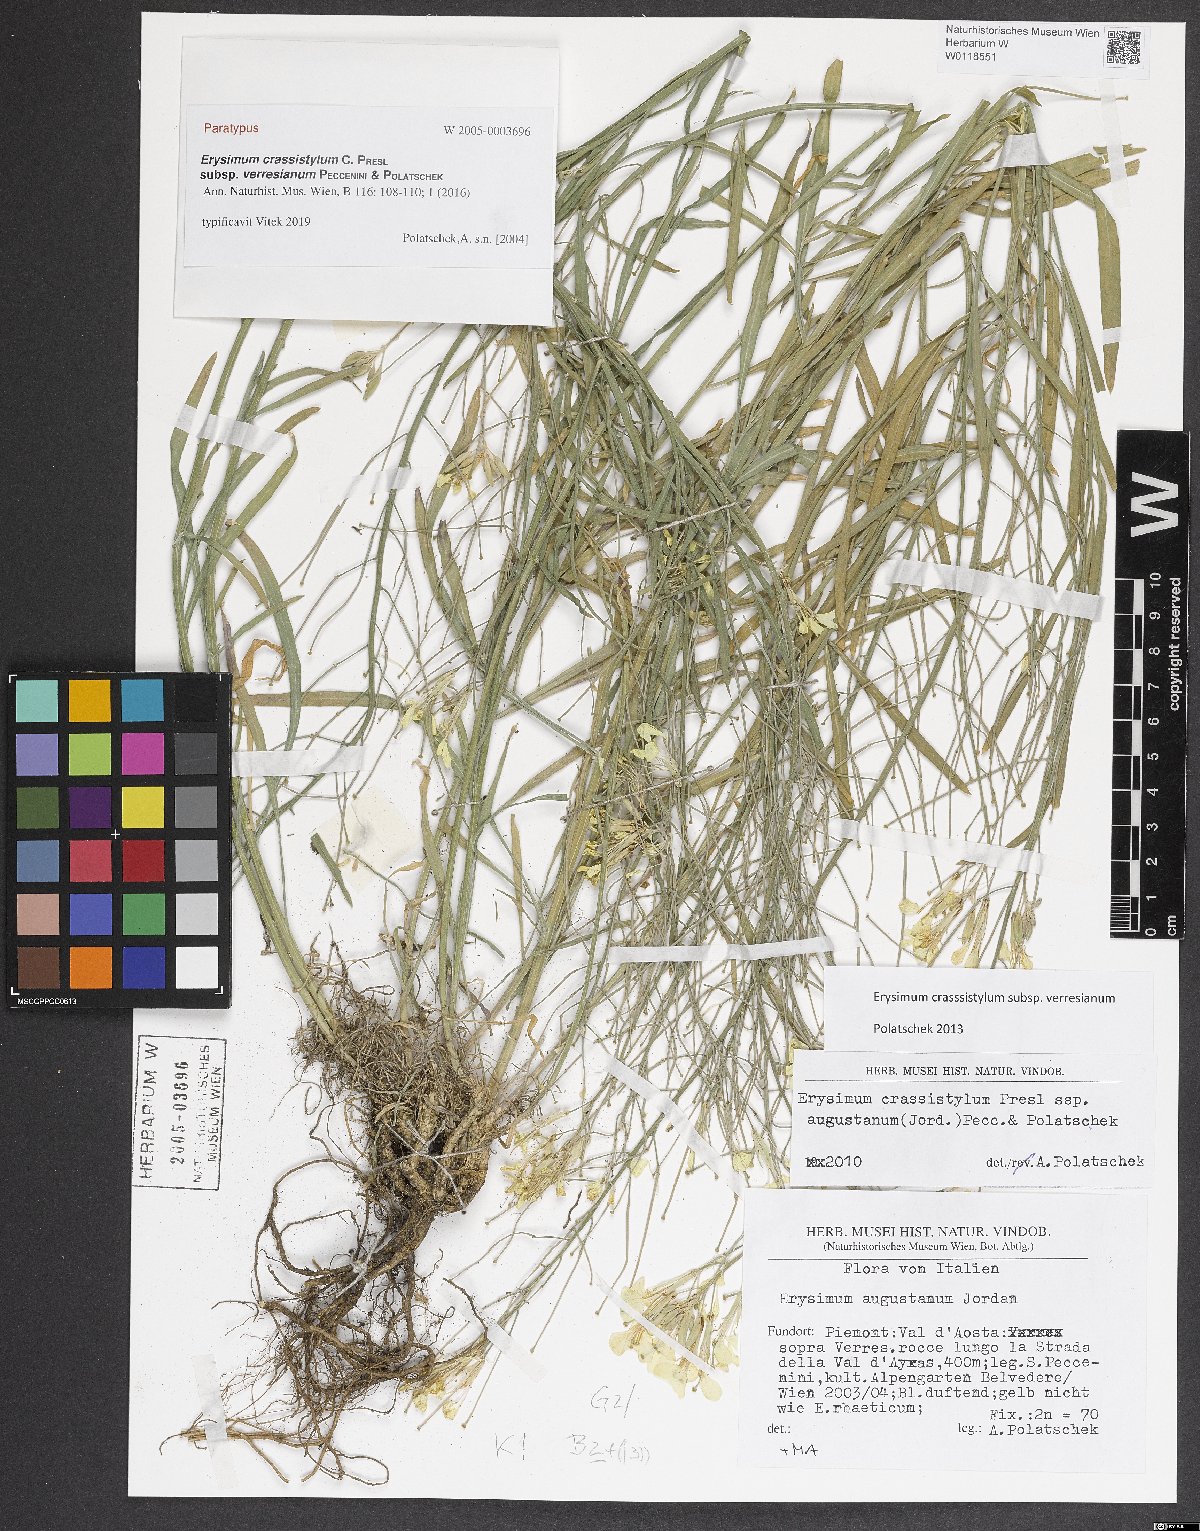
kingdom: Plantae
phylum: Tracheophyta
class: Magnoliopsida
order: Brassicales
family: Brassicaceae
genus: Erysimum
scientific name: Erysimum crassistylum
